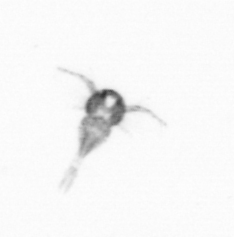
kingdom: Animalia
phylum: Arthropoda
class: Copepoda
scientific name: Copepoda
